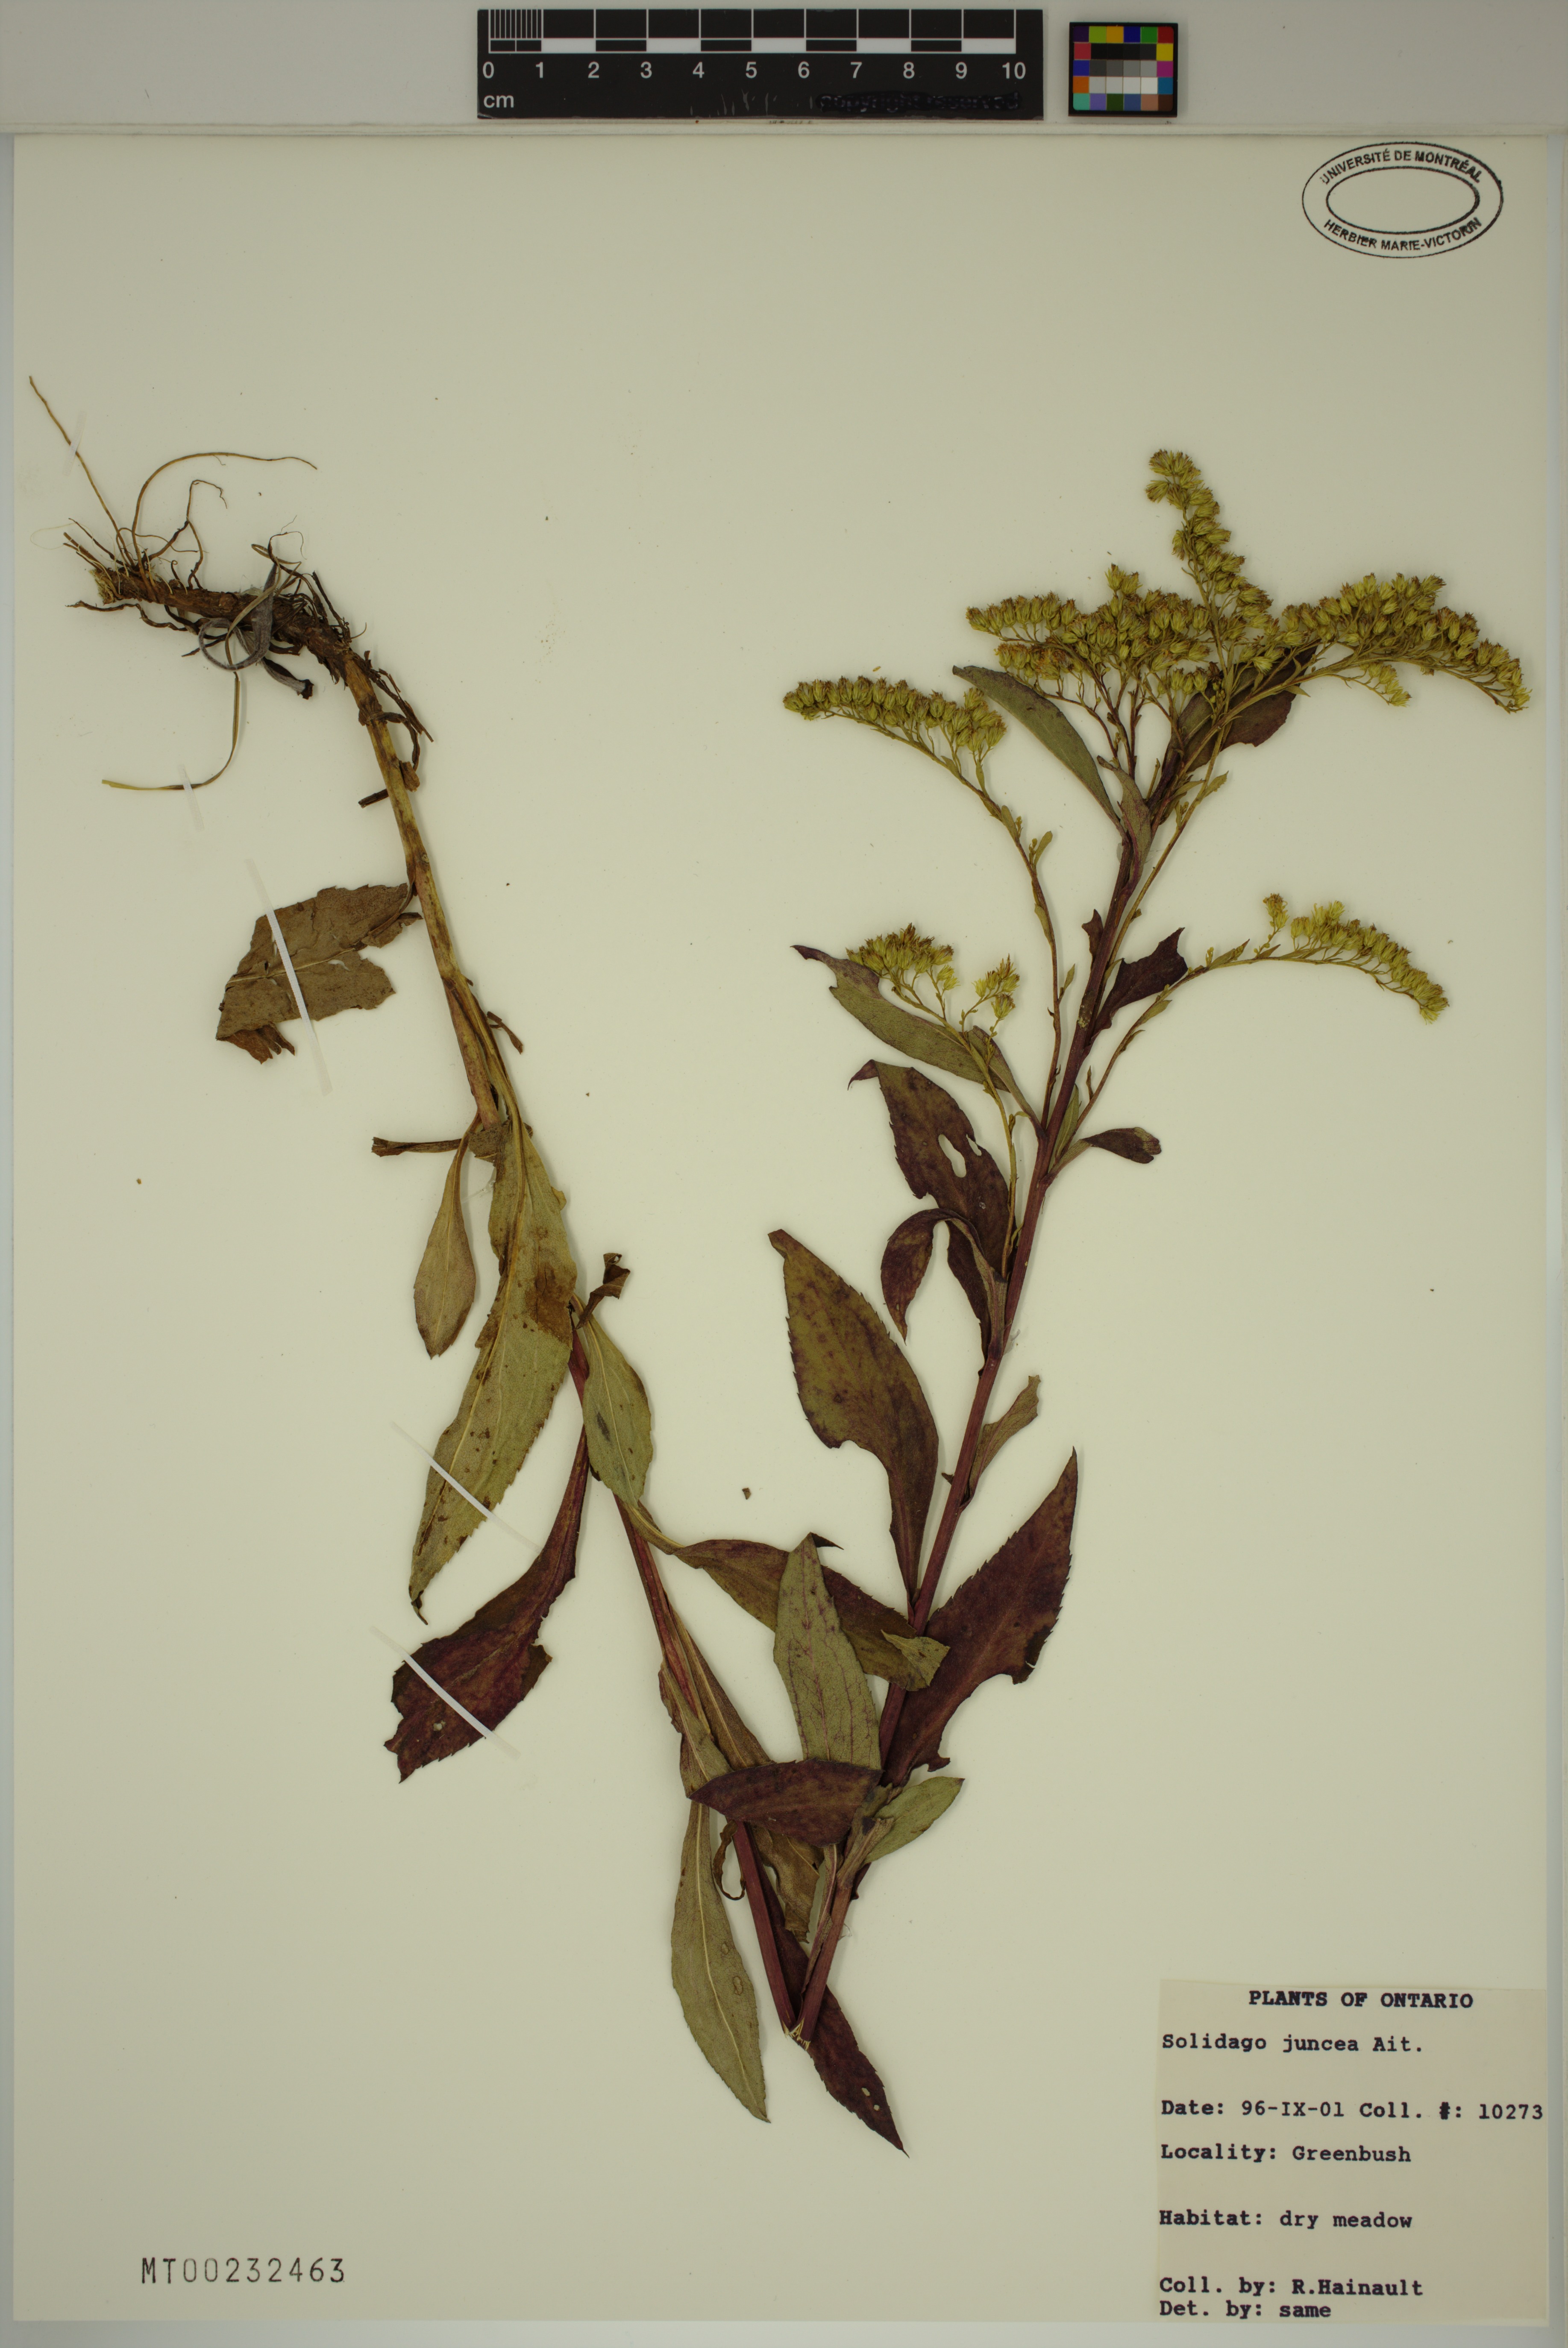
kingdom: Plantae
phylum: Tracheophyta
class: Magnoliopsida
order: Asterales
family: Asteraceae
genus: Solidago
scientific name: Solidago juncea
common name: Early goldenrod
